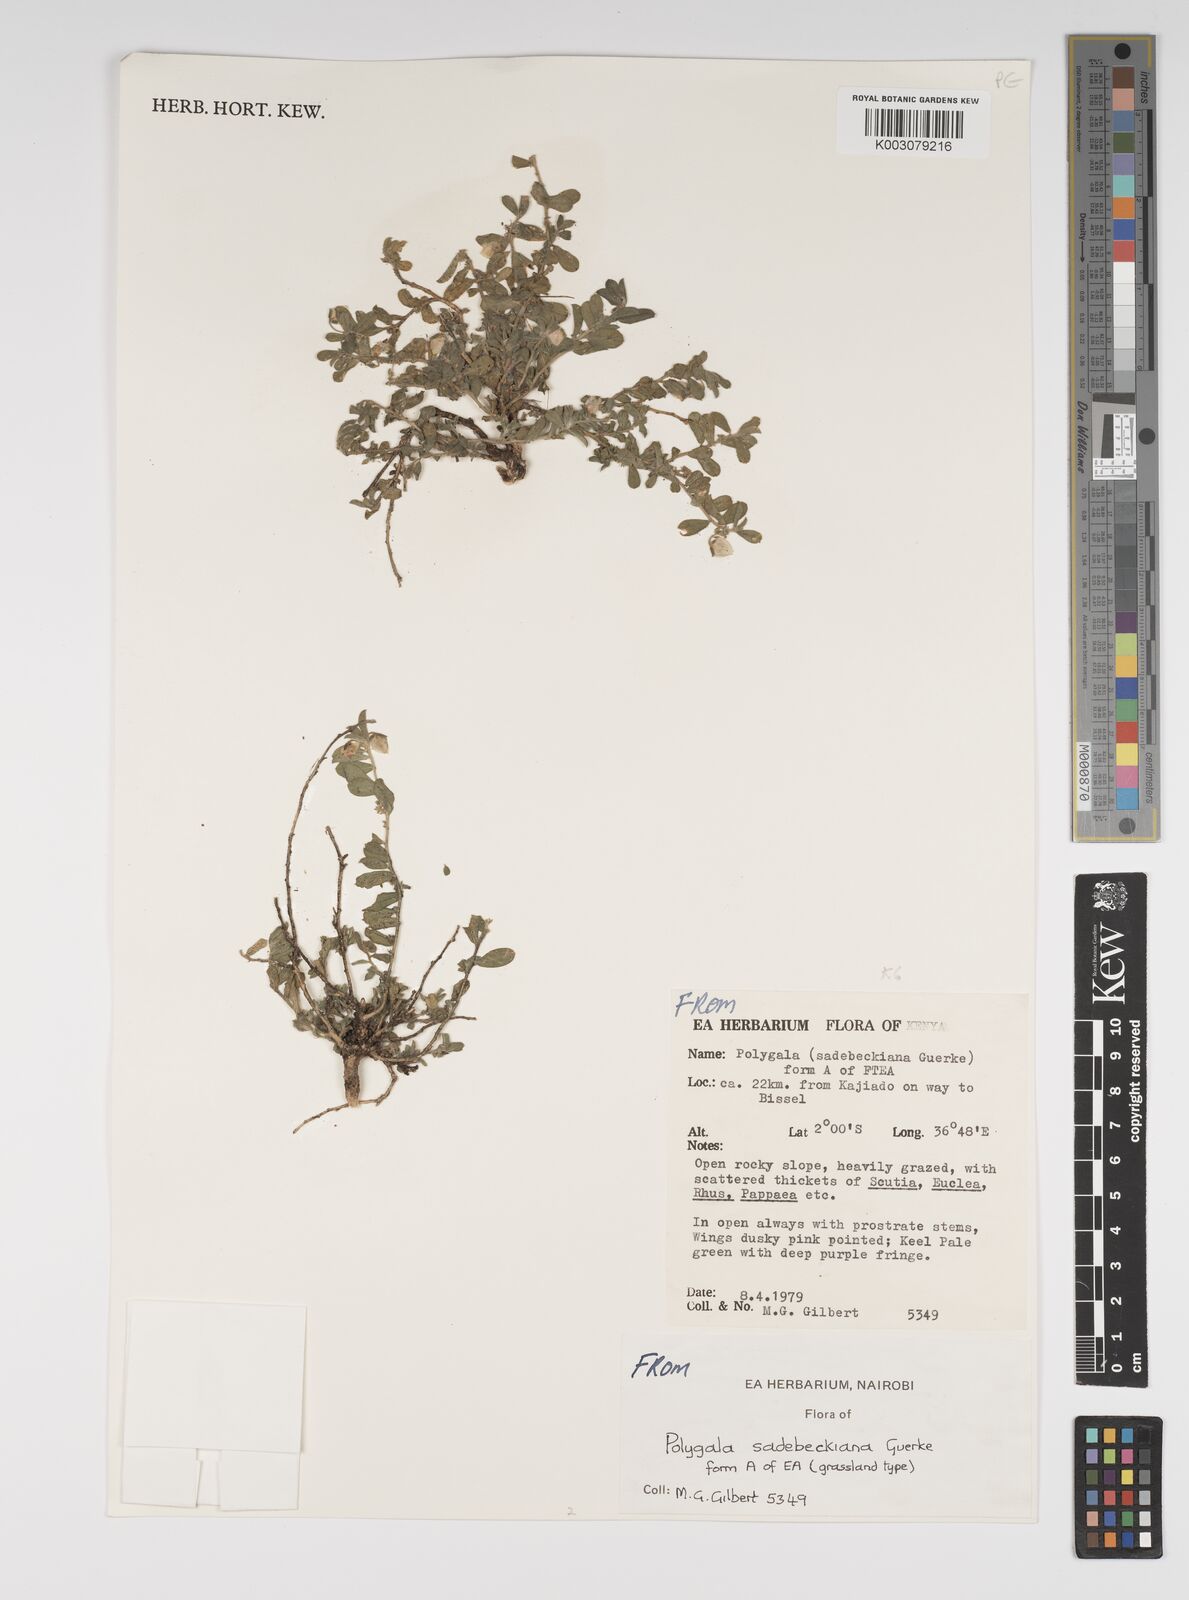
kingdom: Plantae
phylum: Tracheophyta
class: Magnoliopsida
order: Fabales
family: Polygalaceae
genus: Polygala
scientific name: Polygala sadebeckiana
